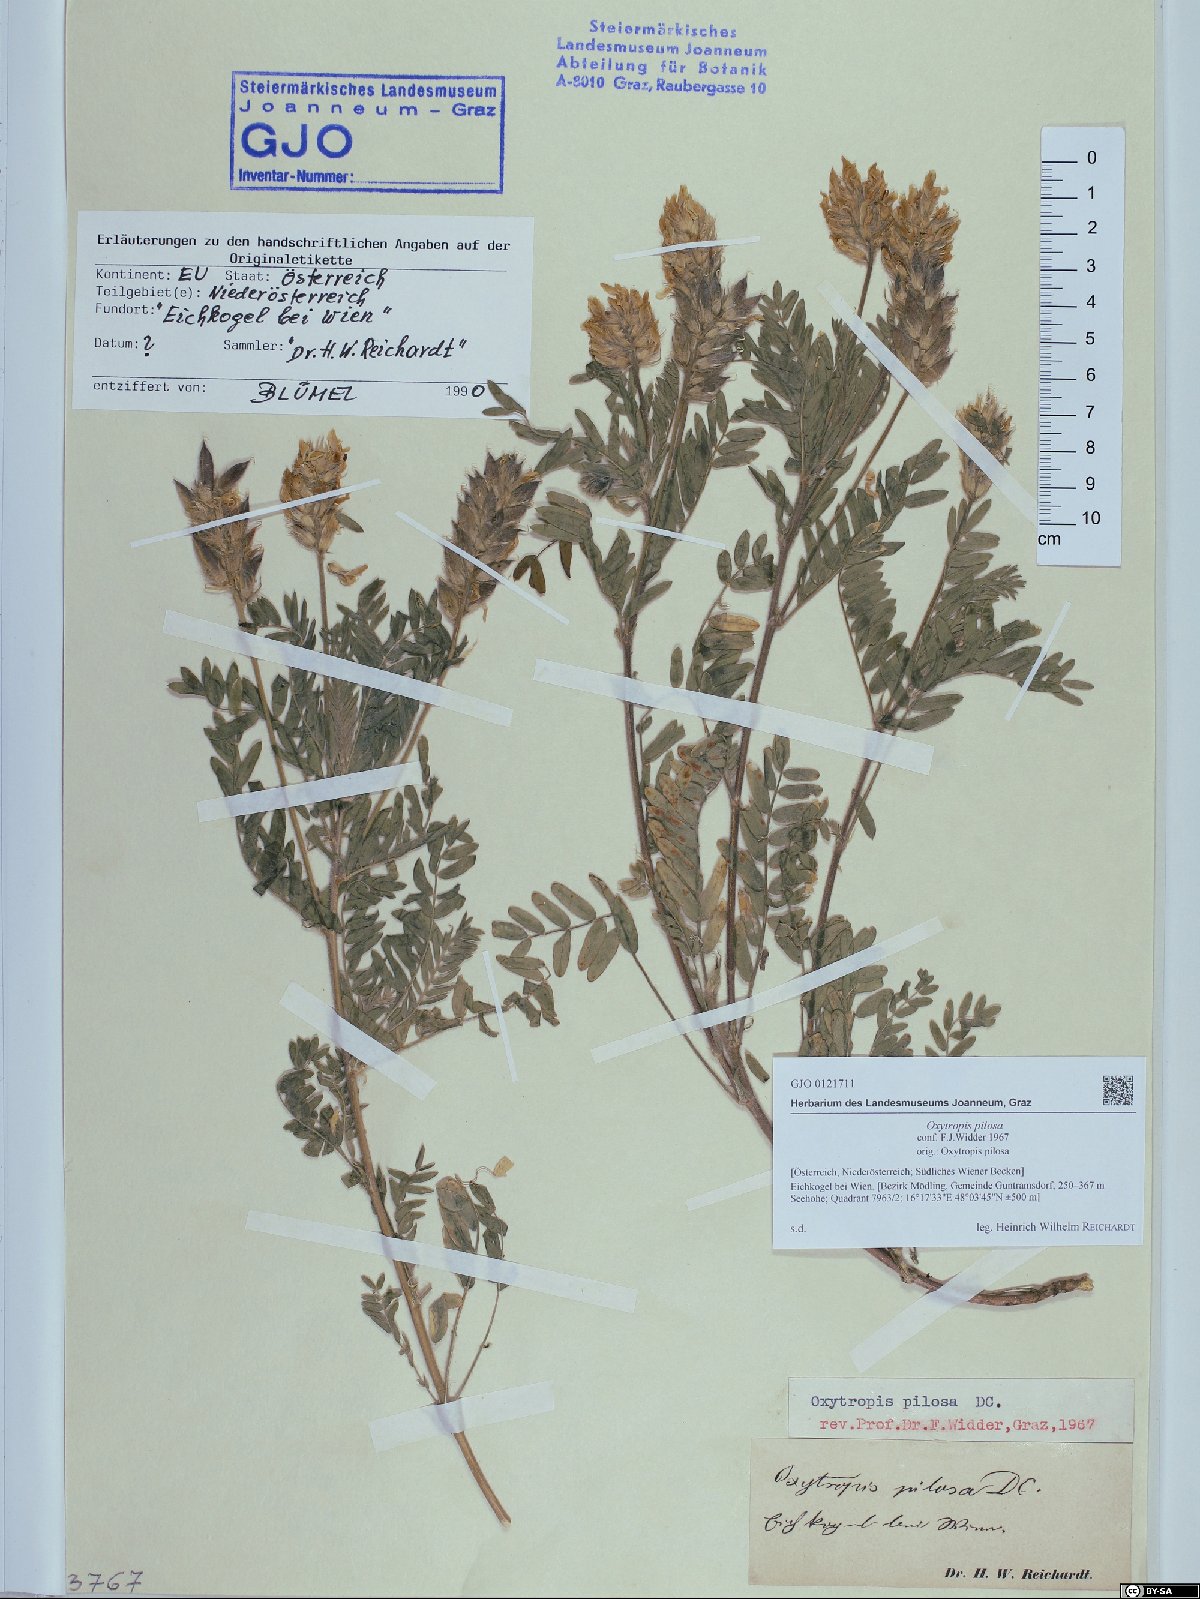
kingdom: Plantae
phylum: Tracheophyta
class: Magnoliopsida
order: Fabales
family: Fabaceae
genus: Oxytropis
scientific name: Oxytropis pilosa
